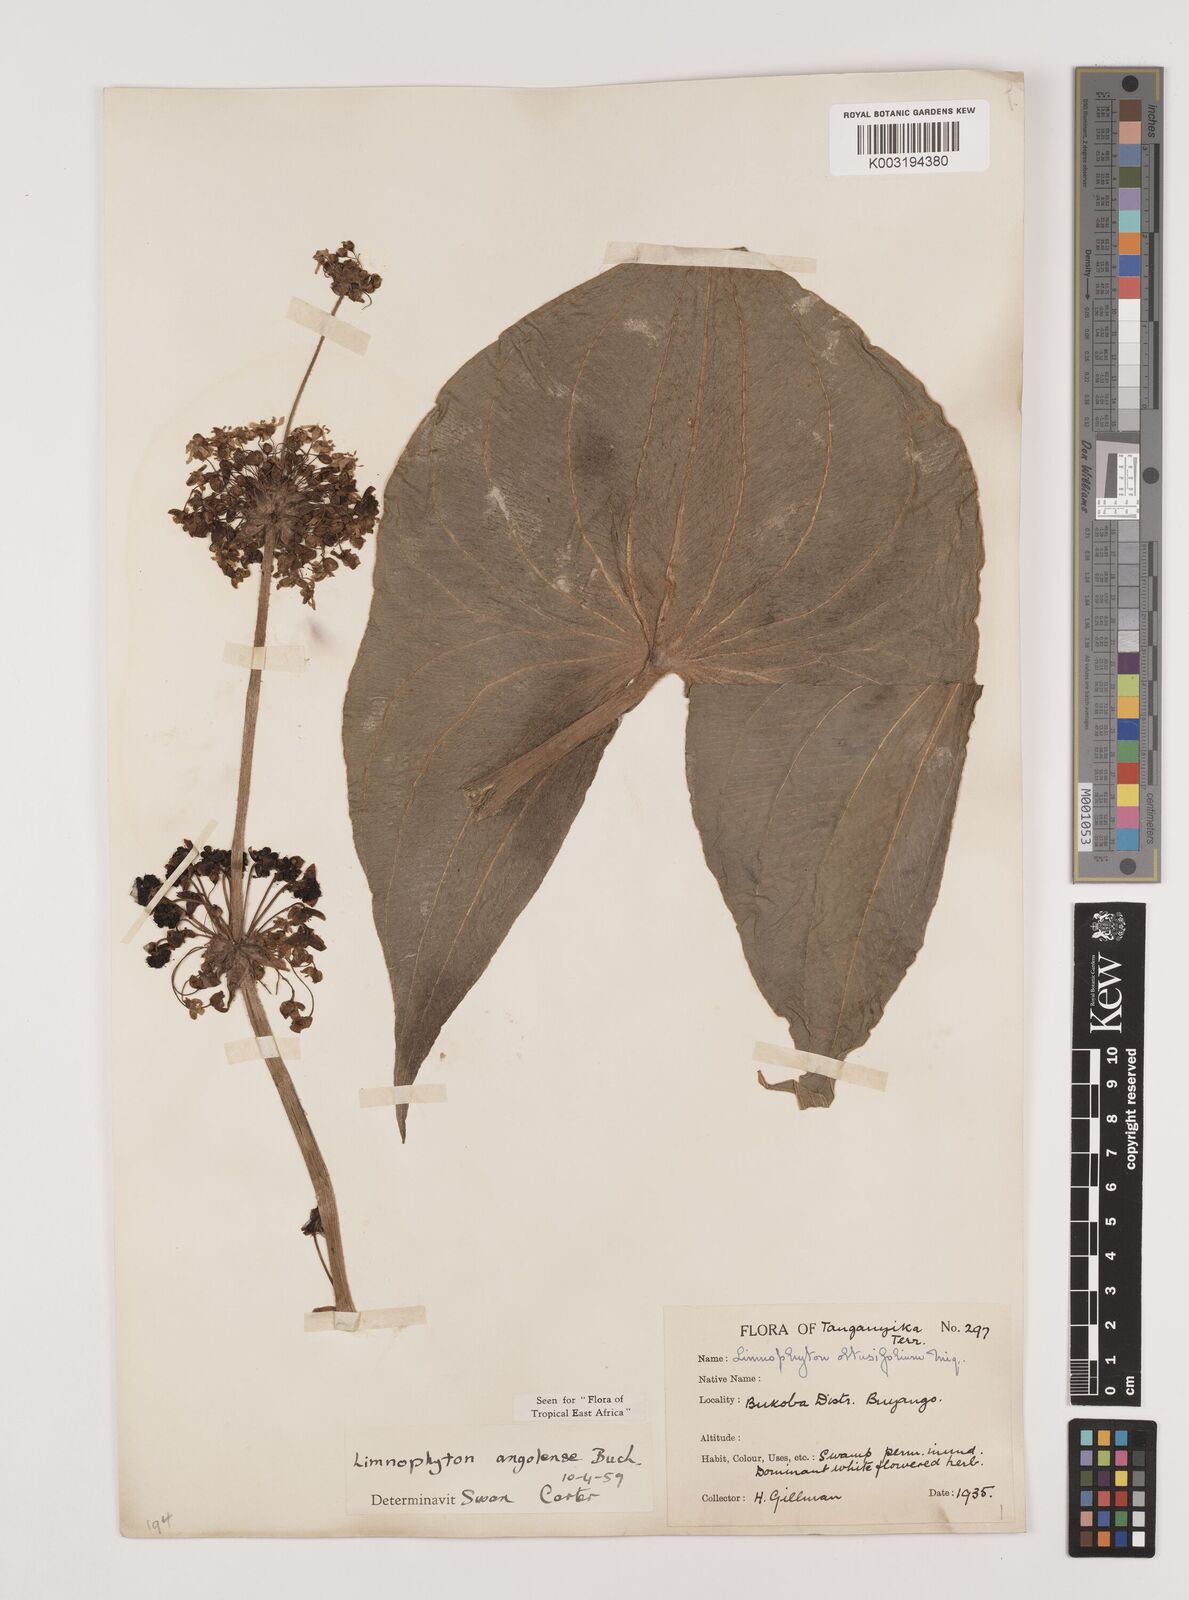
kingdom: Plantae
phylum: Tracheophyta
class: Liliopsida
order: Alismatales
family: Alismataceae
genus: Limnophyton
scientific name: Limnophyton angolense
